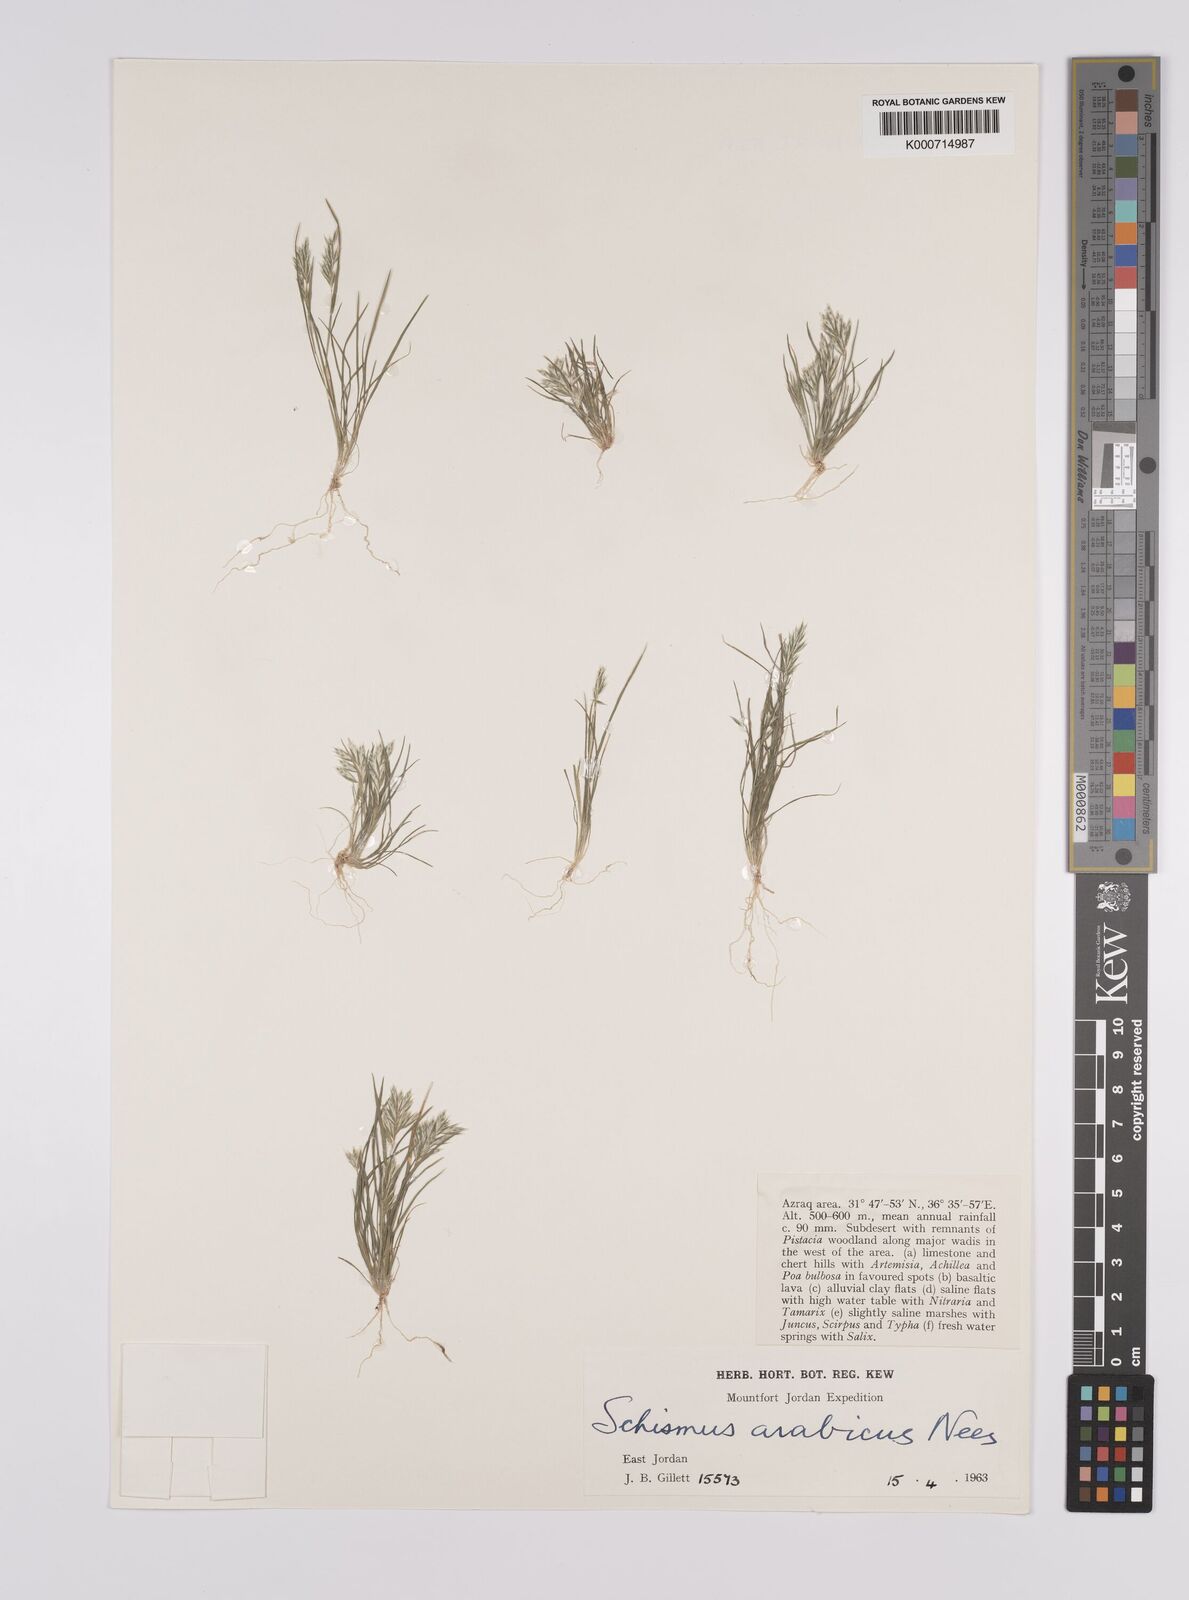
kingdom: Plantae
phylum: Tracheophyta
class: Liliopsida
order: Poales
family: Poaceae
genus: Schismus
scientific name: Schismus arabicus
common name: Arabian schismus
